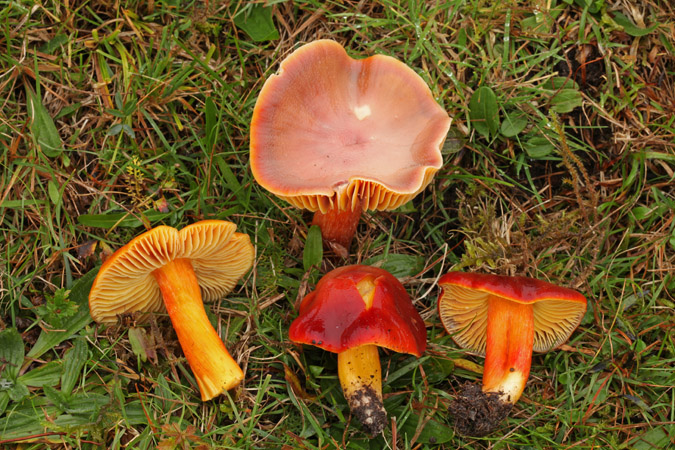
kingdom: Fungi
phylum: Basidiomycota
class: Agaricomycetes
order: Agaricales
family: Hygrophoraceae
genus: Hygrocybe
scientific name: Hygrocybe punicea
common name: skarlagen-vokshat
